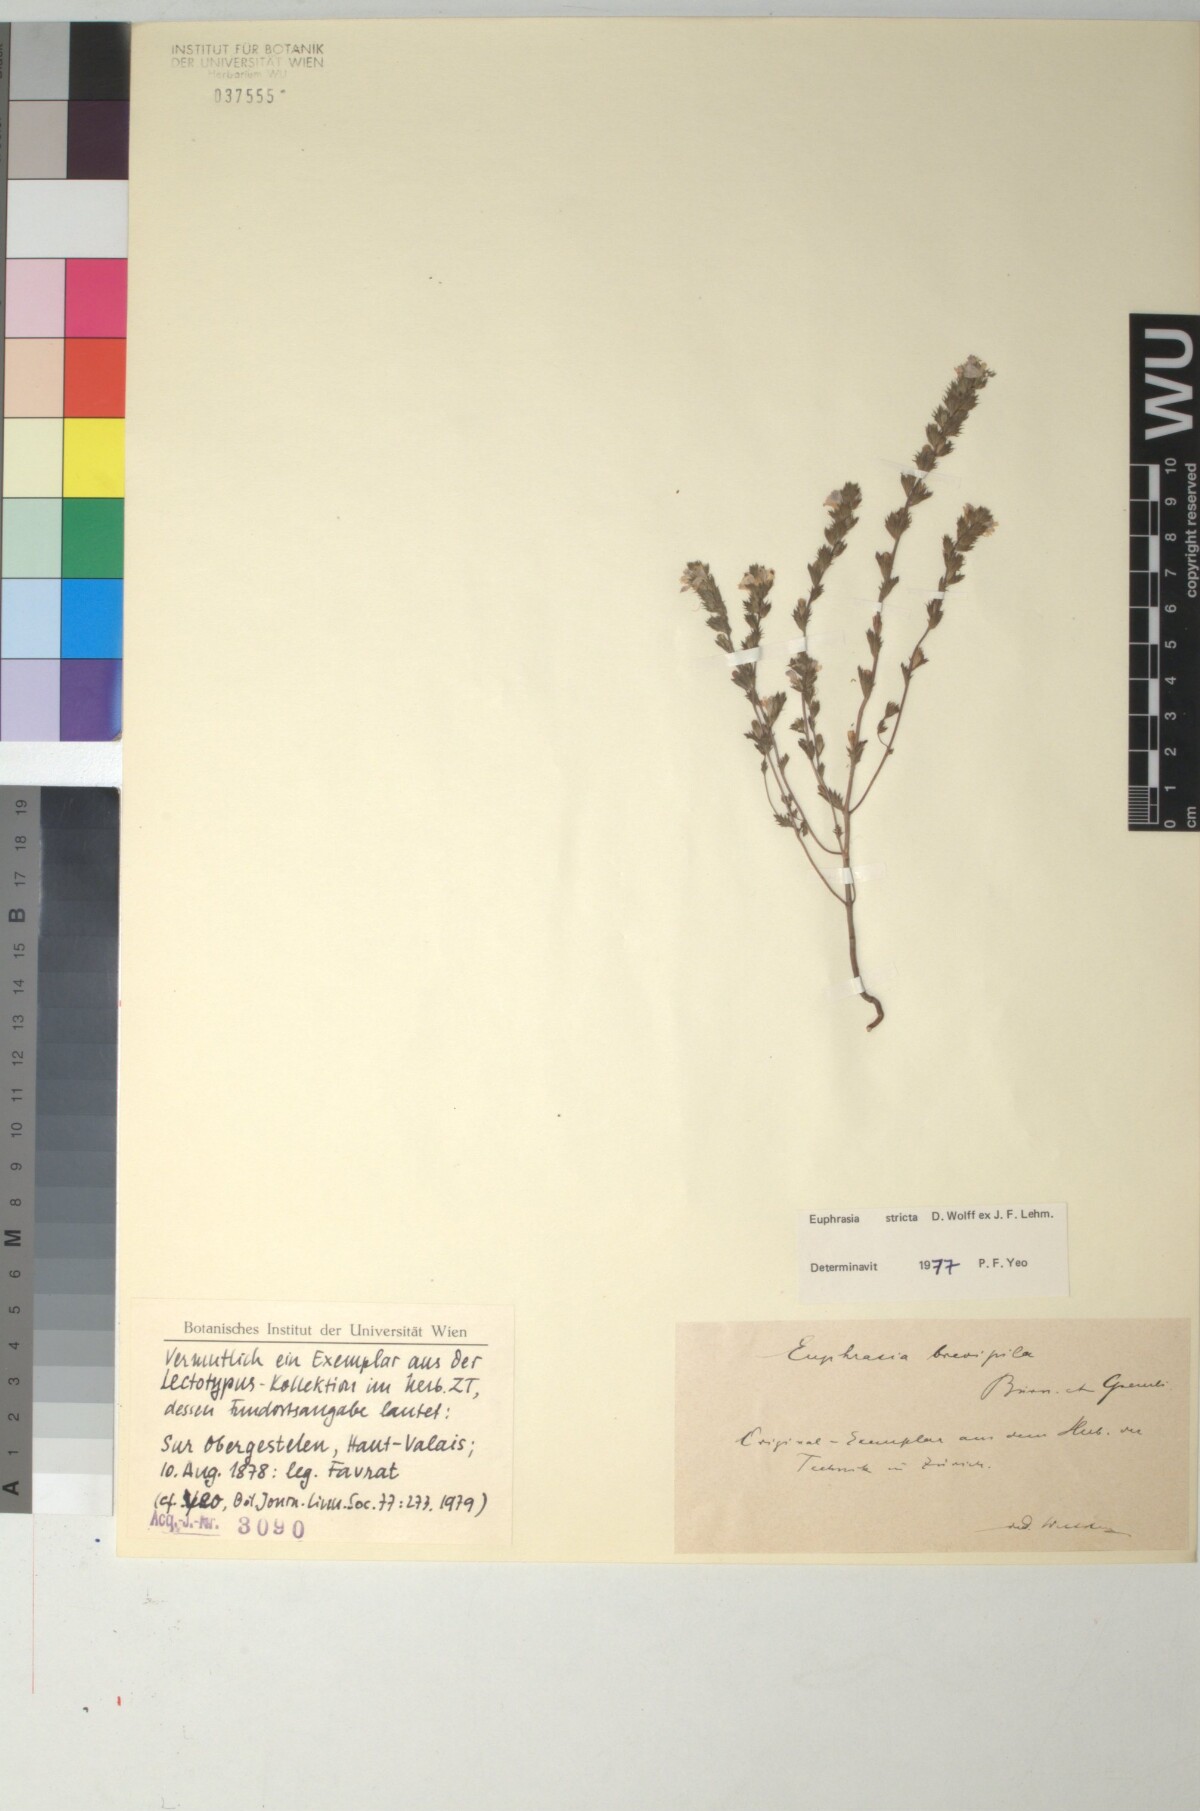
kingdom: Plantae
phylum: Tracheophyta
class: Magnoliopsida
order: Lamiales
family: Orobanchaceae
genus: Euphrasia
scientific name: Euphrasia vernalis
